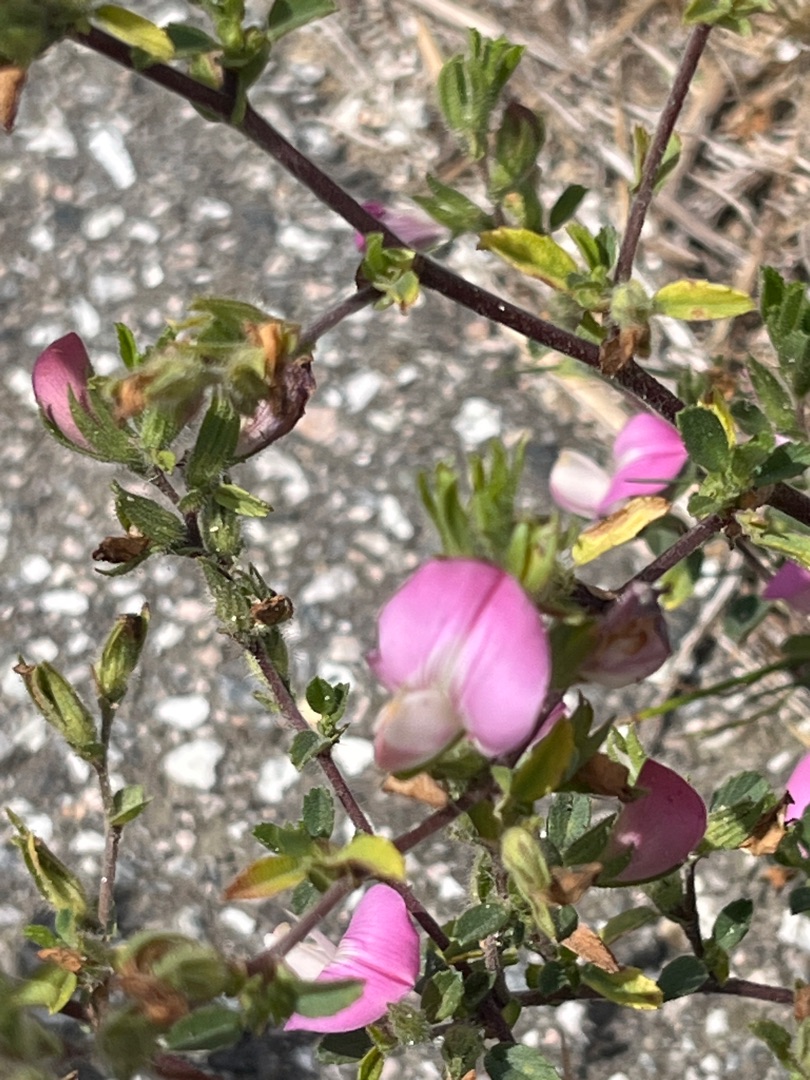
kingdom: Plantae
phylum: Tracheophyta
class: Magnoliopsida
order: Fabales
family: Fabaceae
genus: Ononis
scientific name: Ononis spinosa
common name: Mark-krageklo
